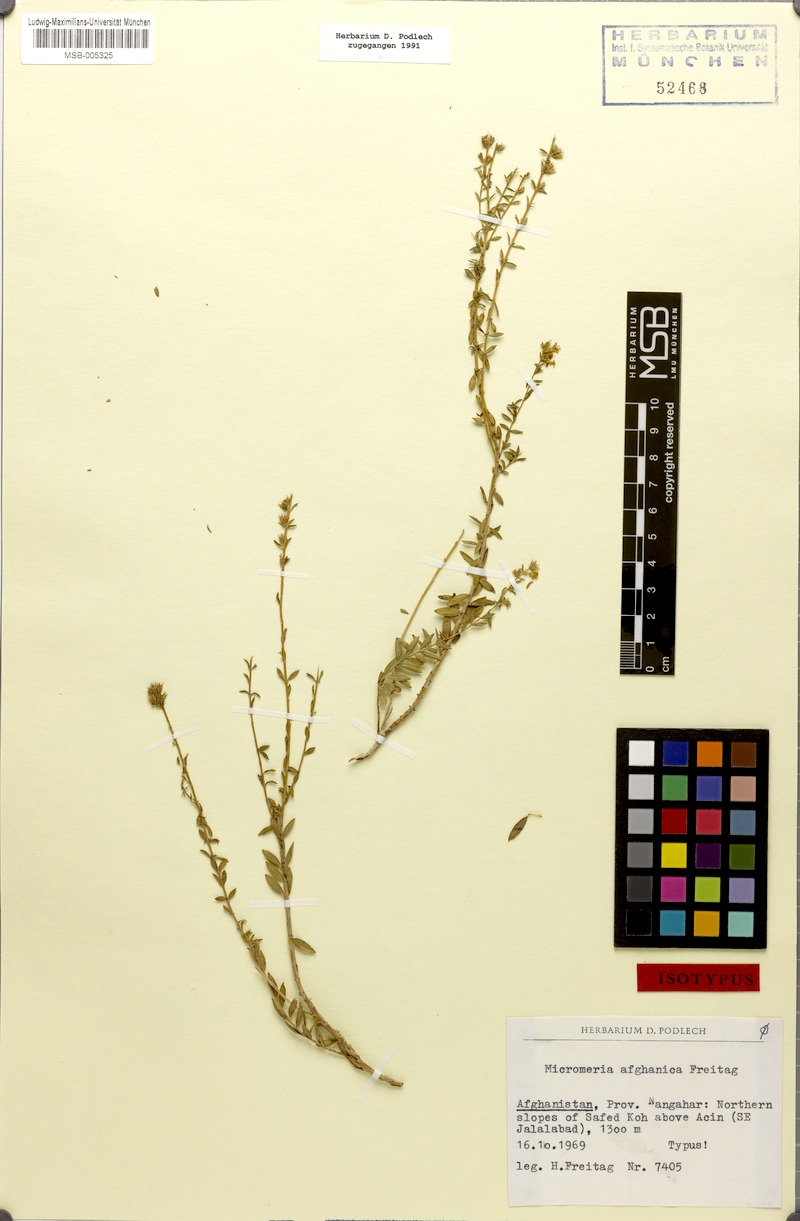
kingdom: Plantae
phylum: Tracheophyta
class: Magnoliopsida
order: Lamiales
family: Lamiaceae
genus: Gontscharovia
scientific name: Gontscharovia popovii
